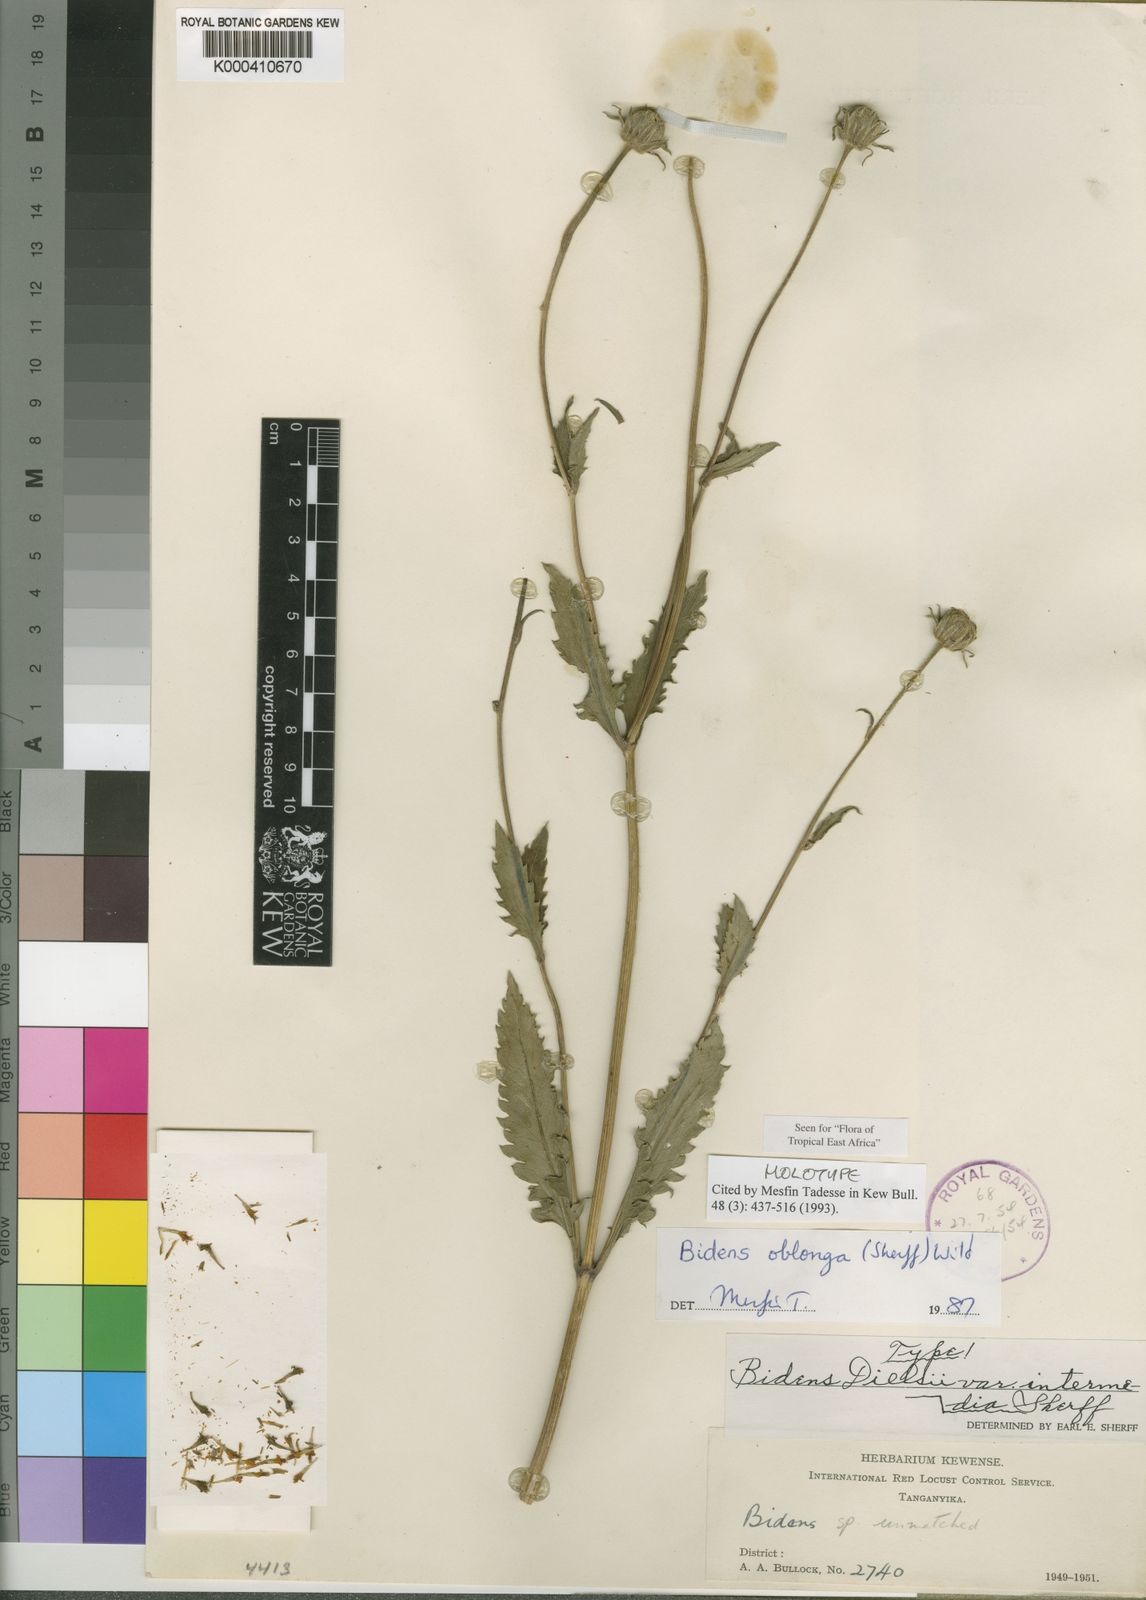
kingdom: Plantae
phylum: Tracheophyta
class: Magnoliopsida
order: Asterales
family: Asteraceae
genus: Bidens
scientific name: Bidens oblonga
